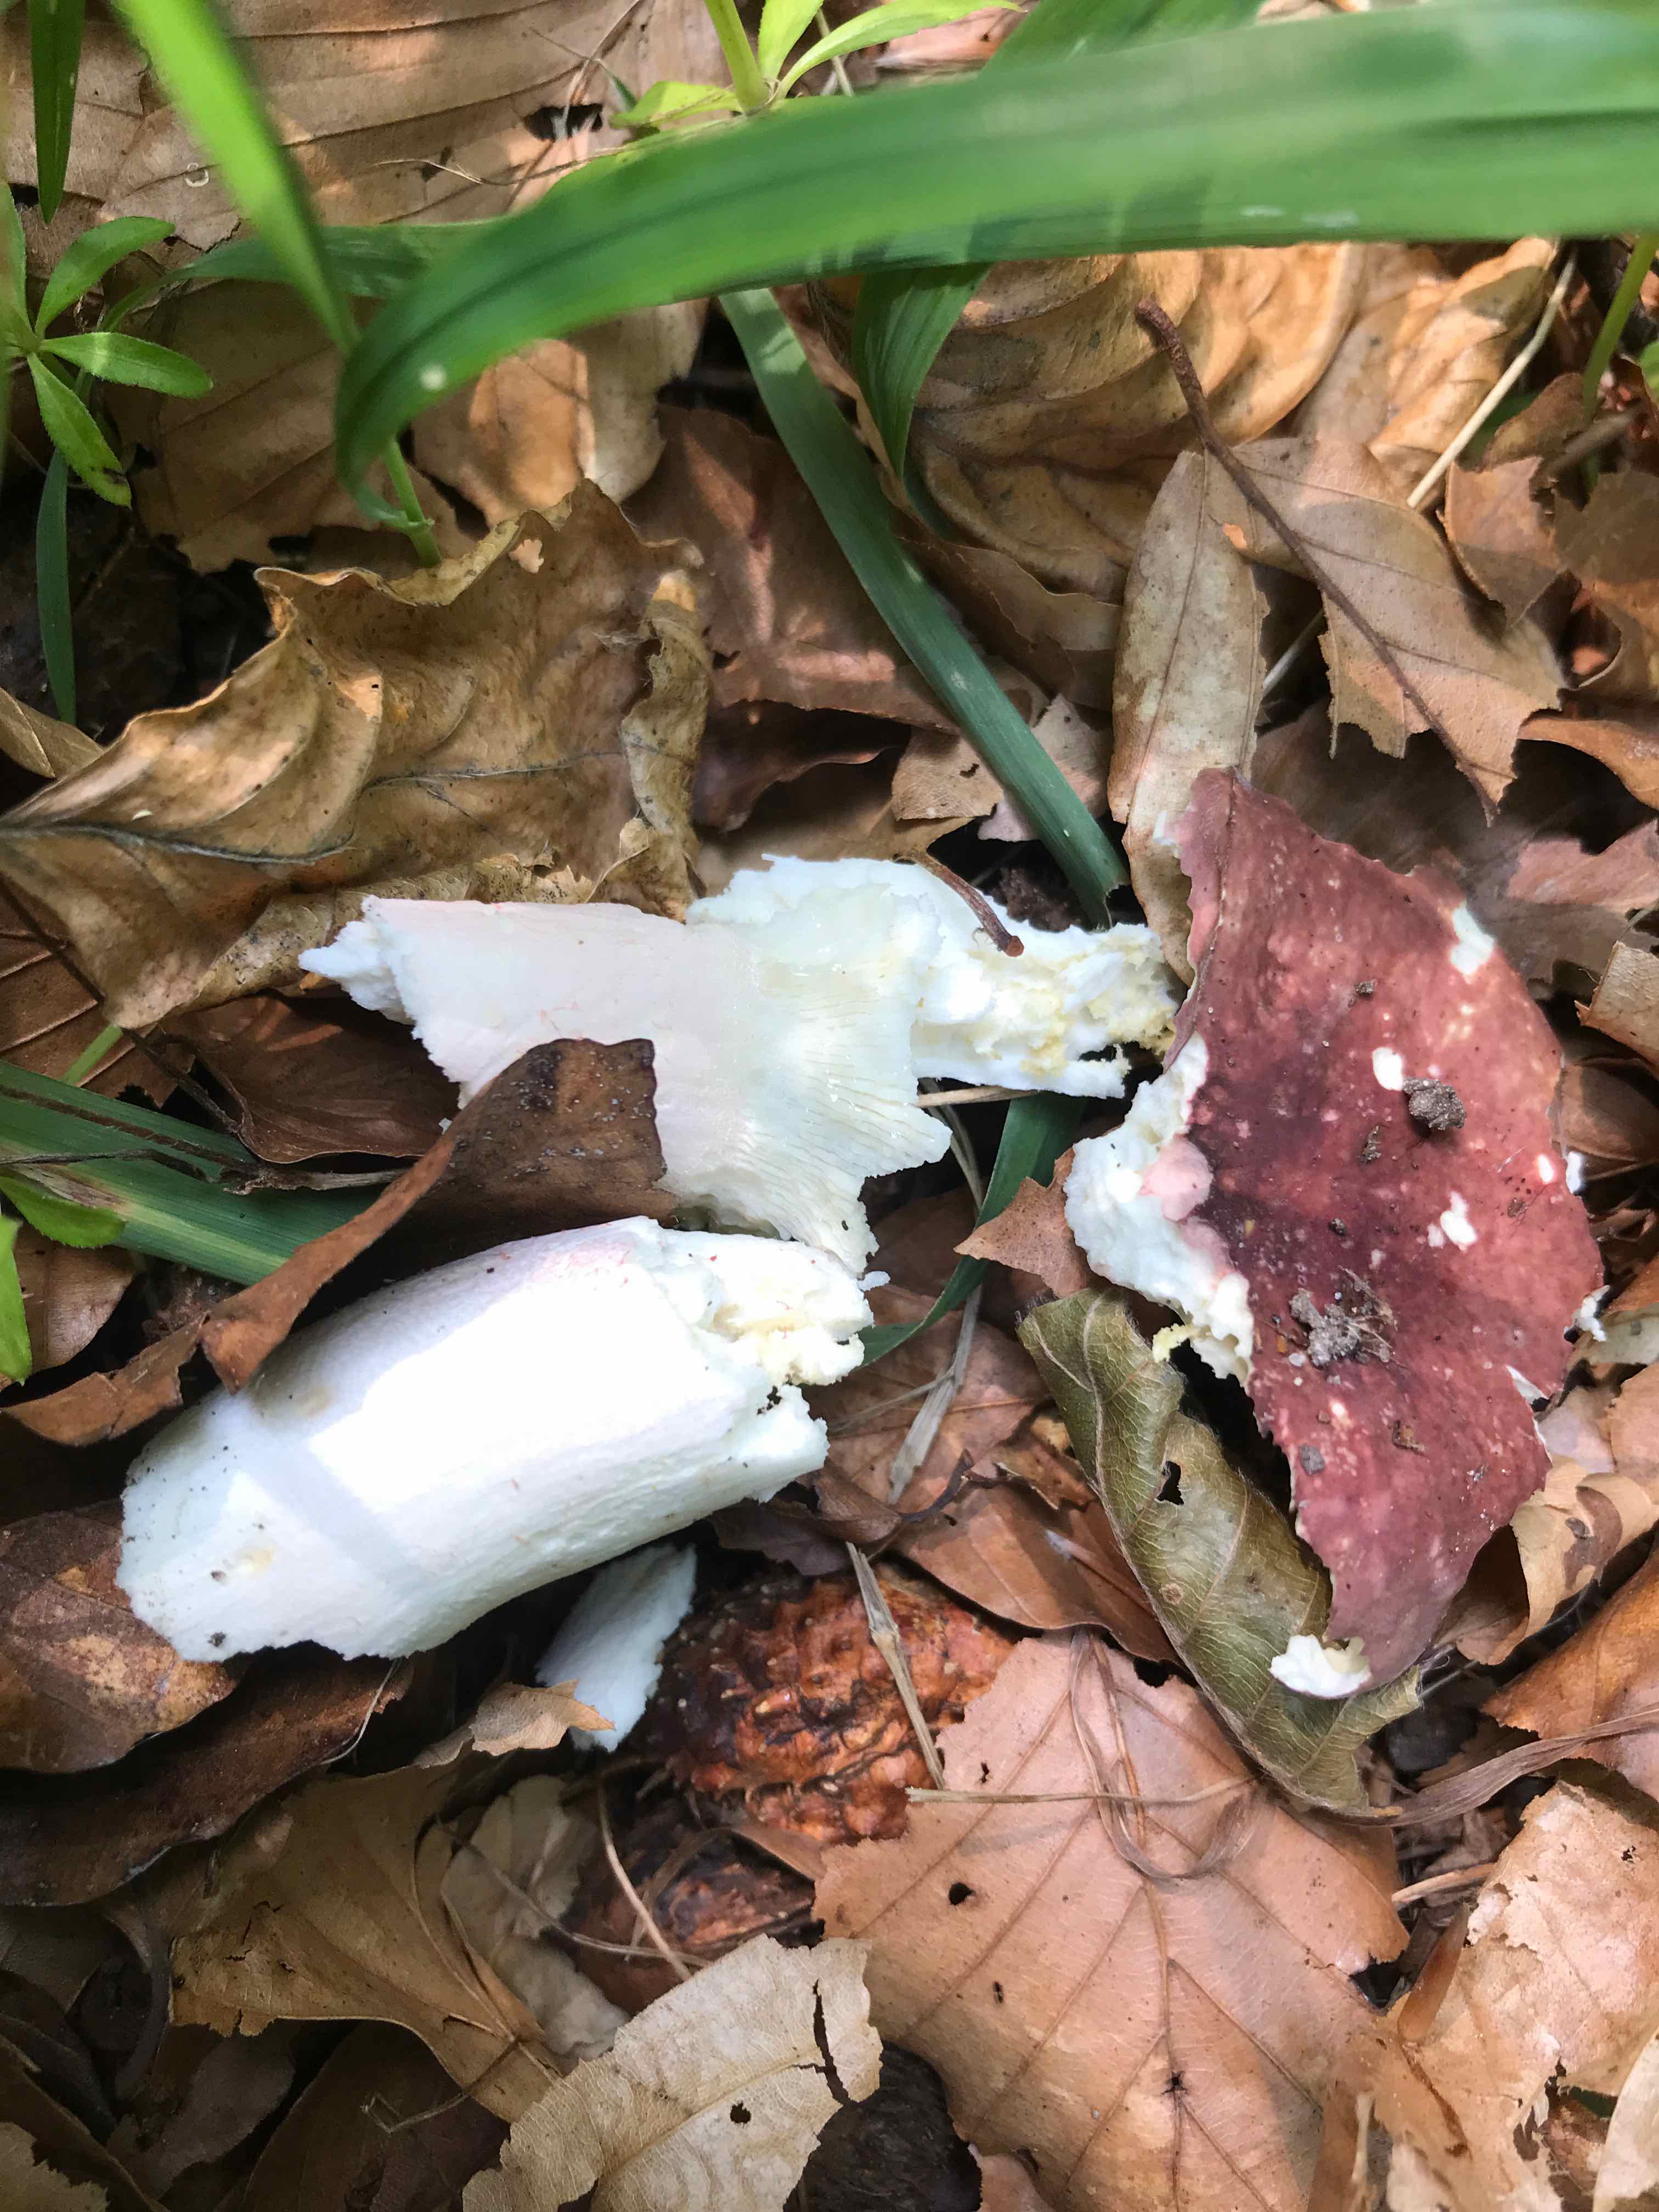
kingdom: Fungi
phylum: Basidiomycota
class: Agaricomycetes
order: Russulales
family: Russulaceae
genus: Russula
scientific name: Russula olivacea
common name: stor skørhat
